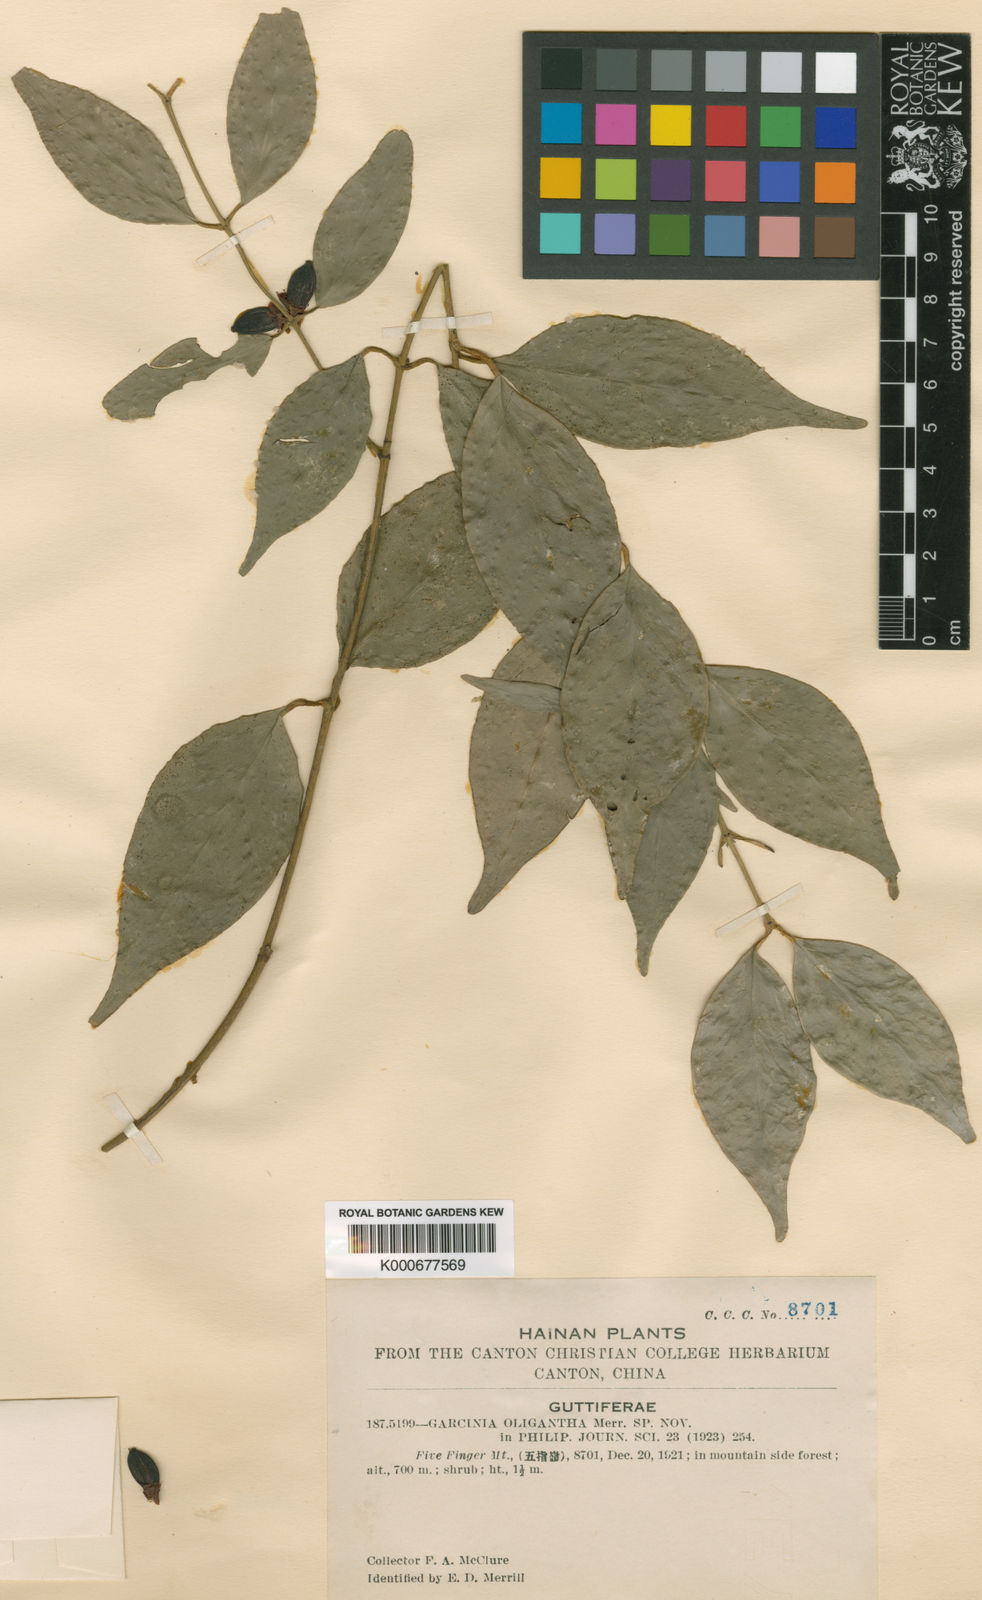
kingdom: Plantae
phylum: Tracheophyta
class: Magnoliopsida
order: Malpighiales
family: Clusiaceae
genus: Garcinia
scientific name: Garcinia oligantha
